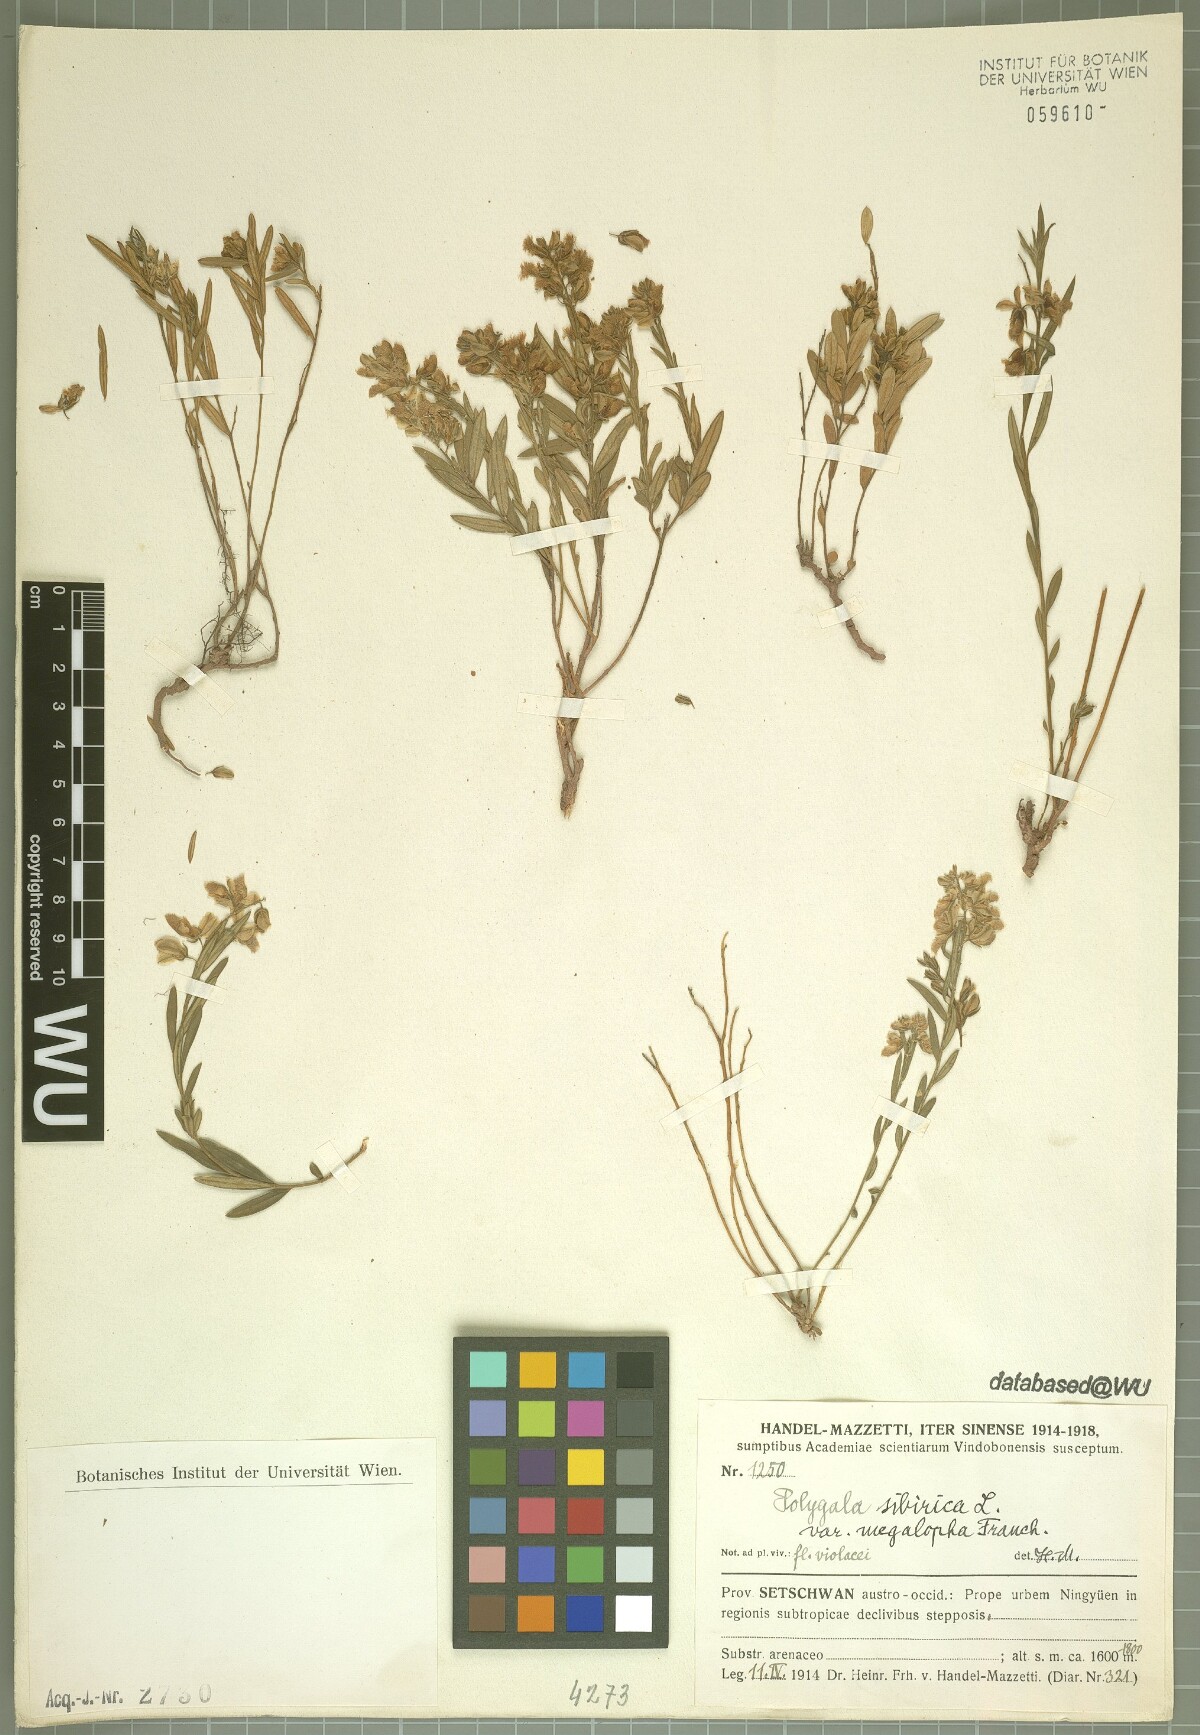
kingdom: Plantae
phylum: Tracheophyta
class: Magnoliopsida
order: Fabales
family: Polygalaceae
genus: Polygala
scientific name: Polygala sibirica
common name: Siberian polygala
